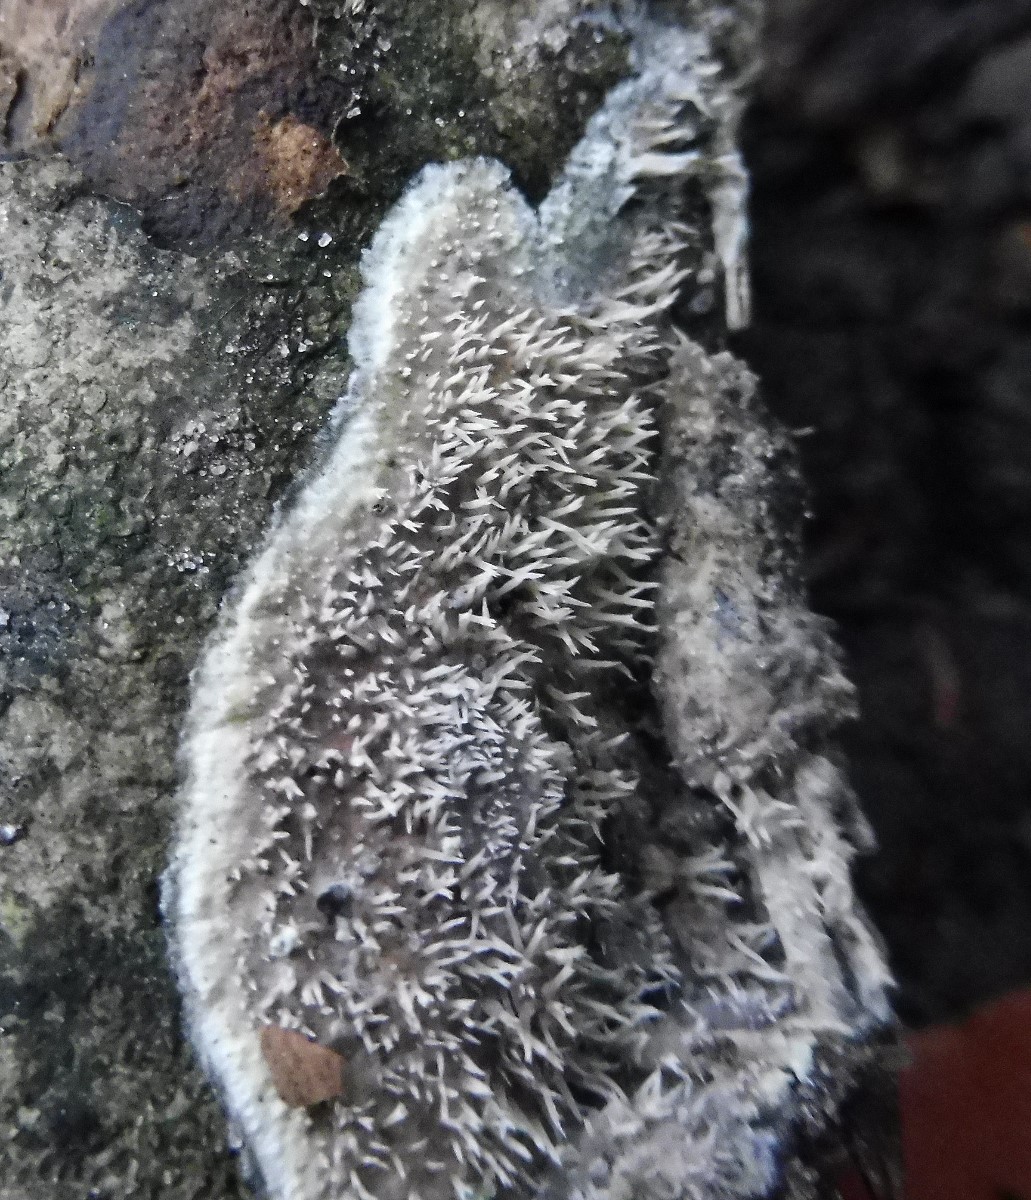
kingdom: Fungi
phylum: Basidiomycota
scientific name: Basidiomycota
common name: basidiesvampe
